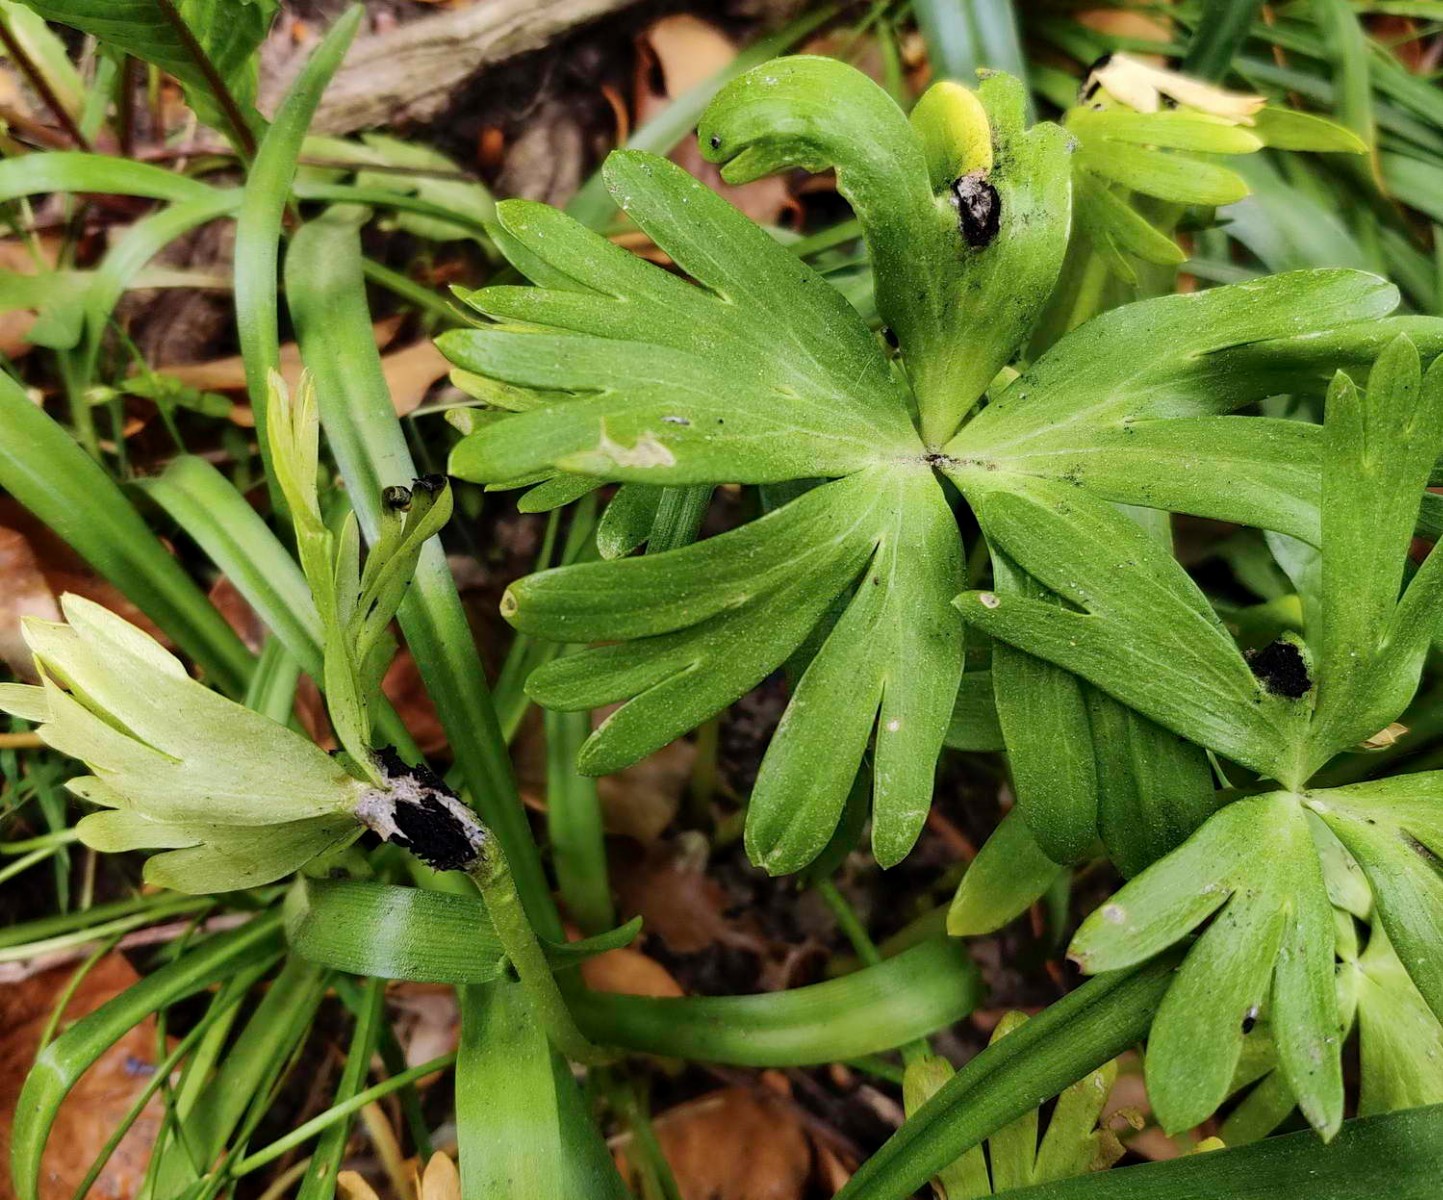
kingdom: Fungi
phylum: Basidiomycota
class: Ustilaginomycetes
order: Urocystidales
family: Urocystidaceae
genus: Urocystis
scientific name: Urocystis eranthidis
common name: erantis-brand
